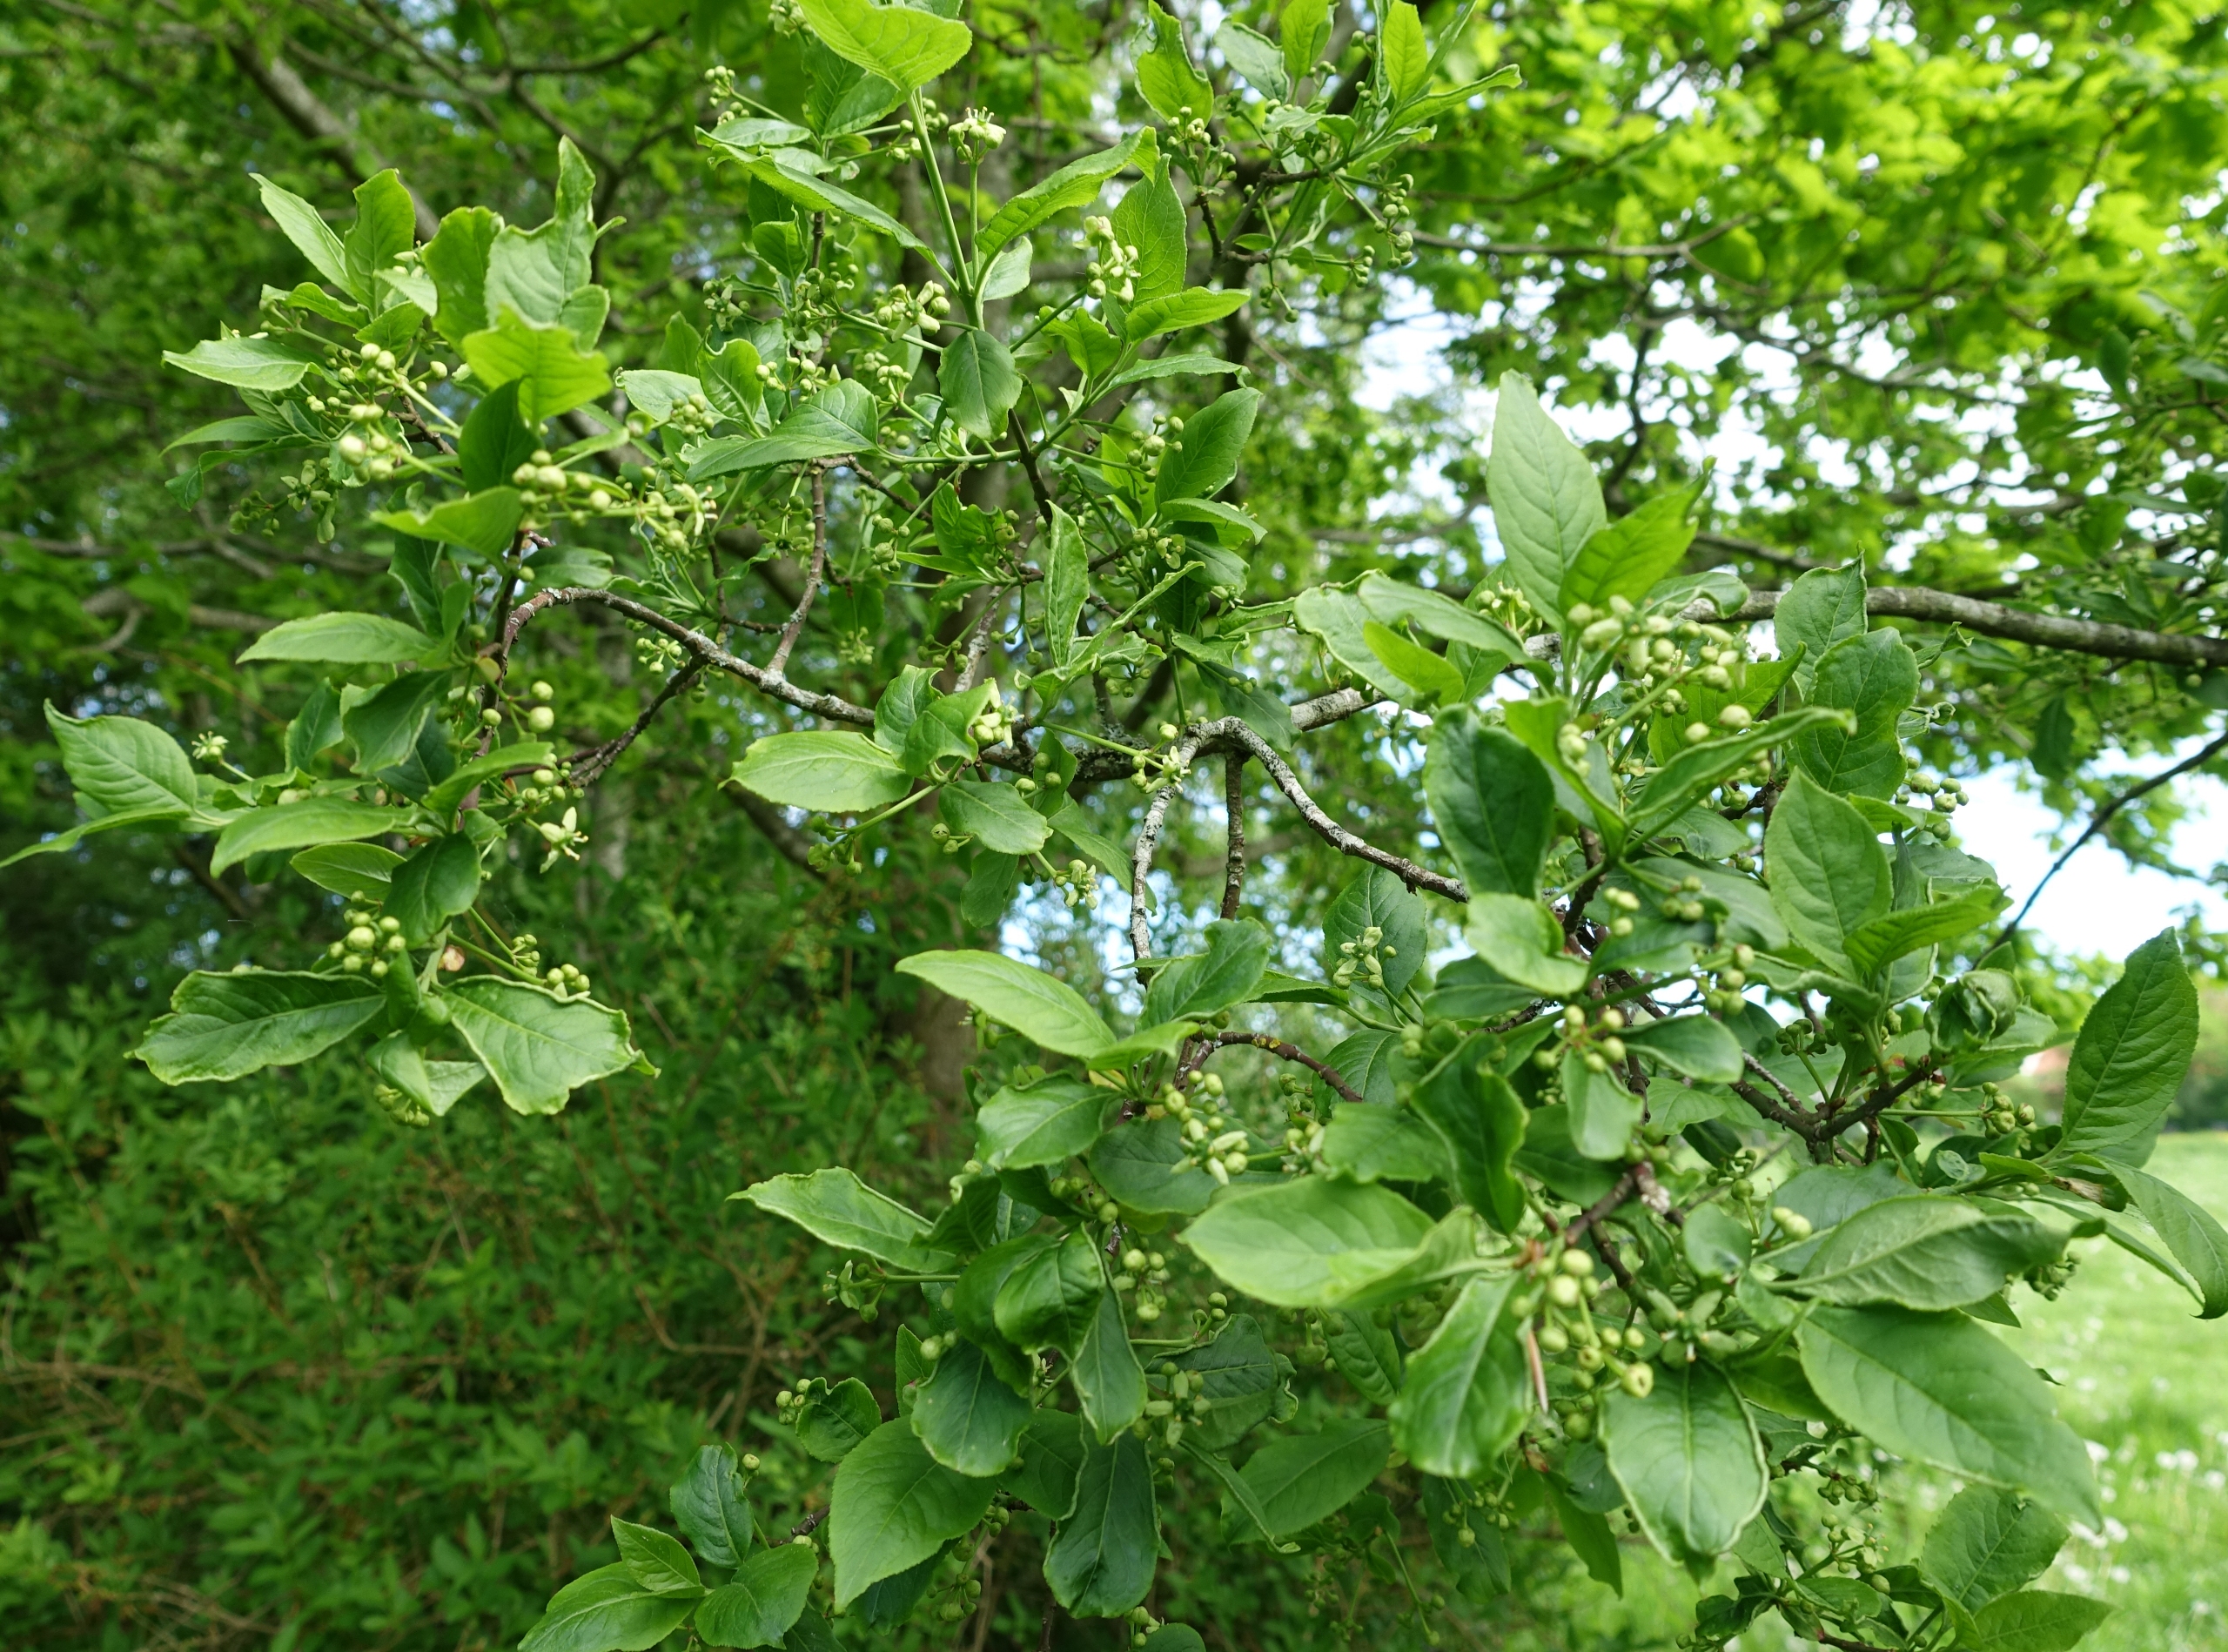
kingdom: Plantae
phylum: Tracheophyta
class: Magnoliopsida
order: Celastrales
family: Celastraceae
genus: Euonymus
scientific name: Euonymus europaeus
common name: Benved
